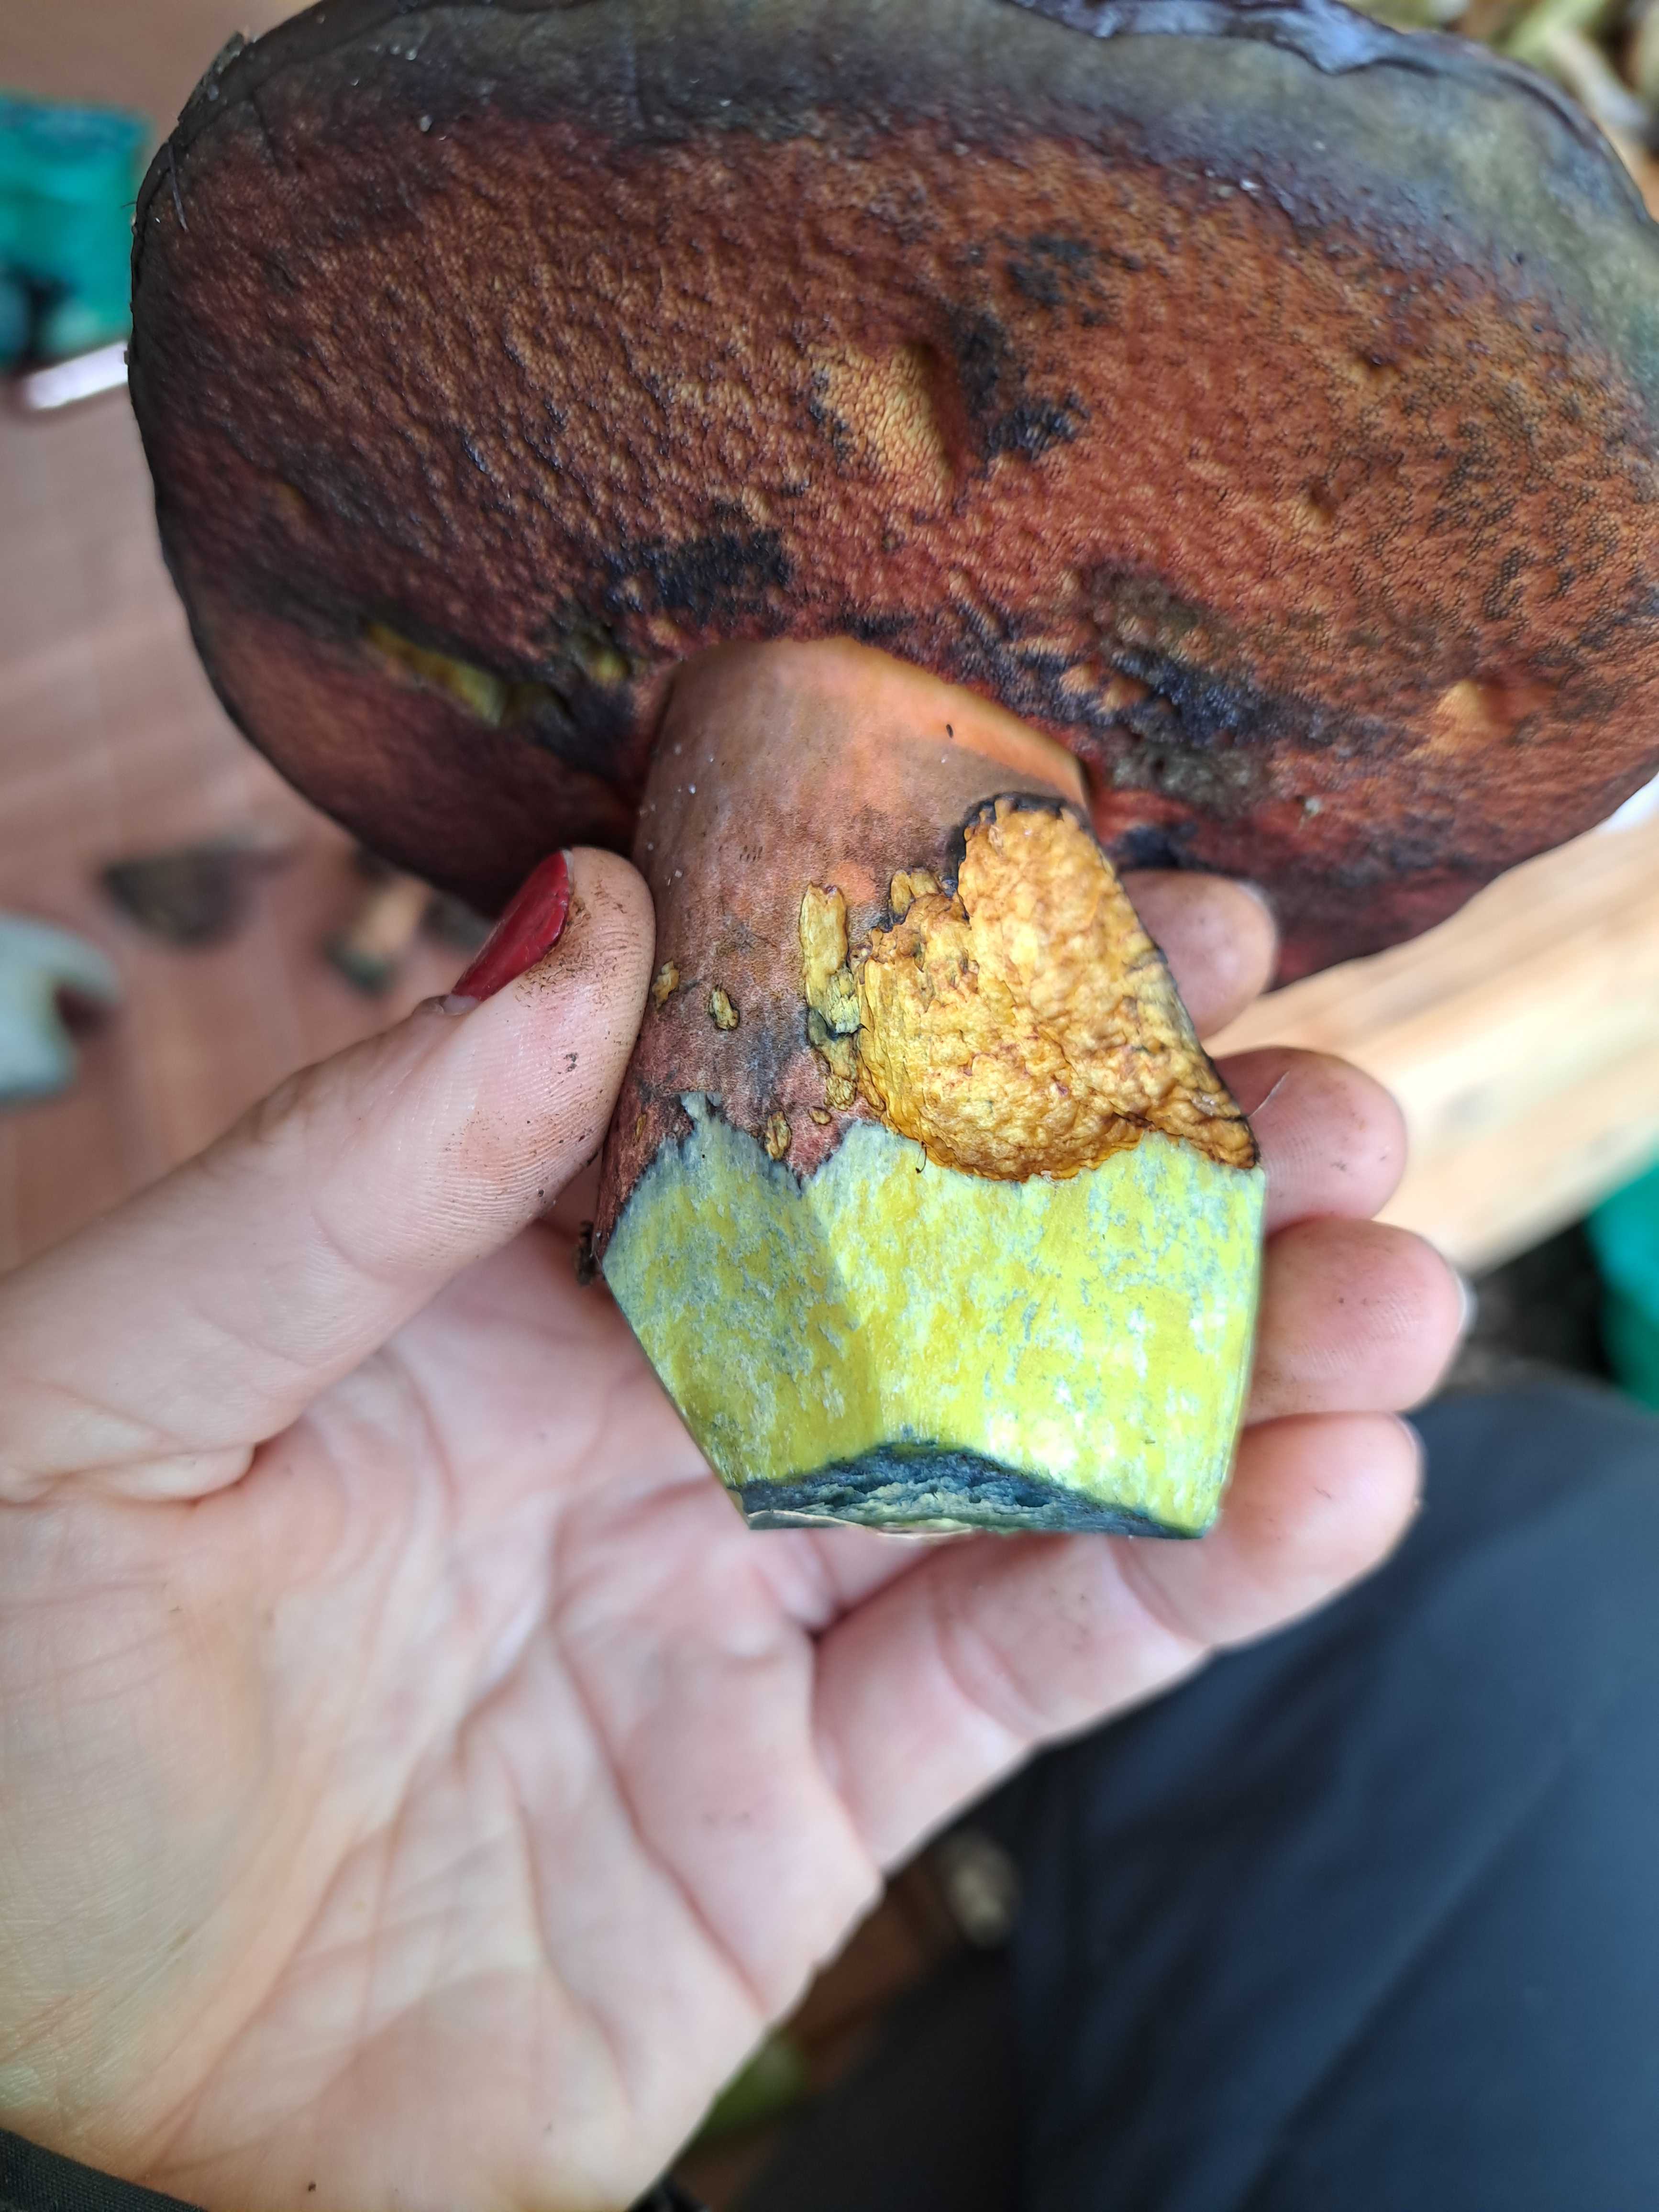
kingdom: Fungi
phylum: Basidiomycota
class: Agaricomycetes
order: Boletales
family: Boletaceae
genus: Neoboletus
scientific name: Neoboletus erythropus
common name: punktstokket indigorørhat
